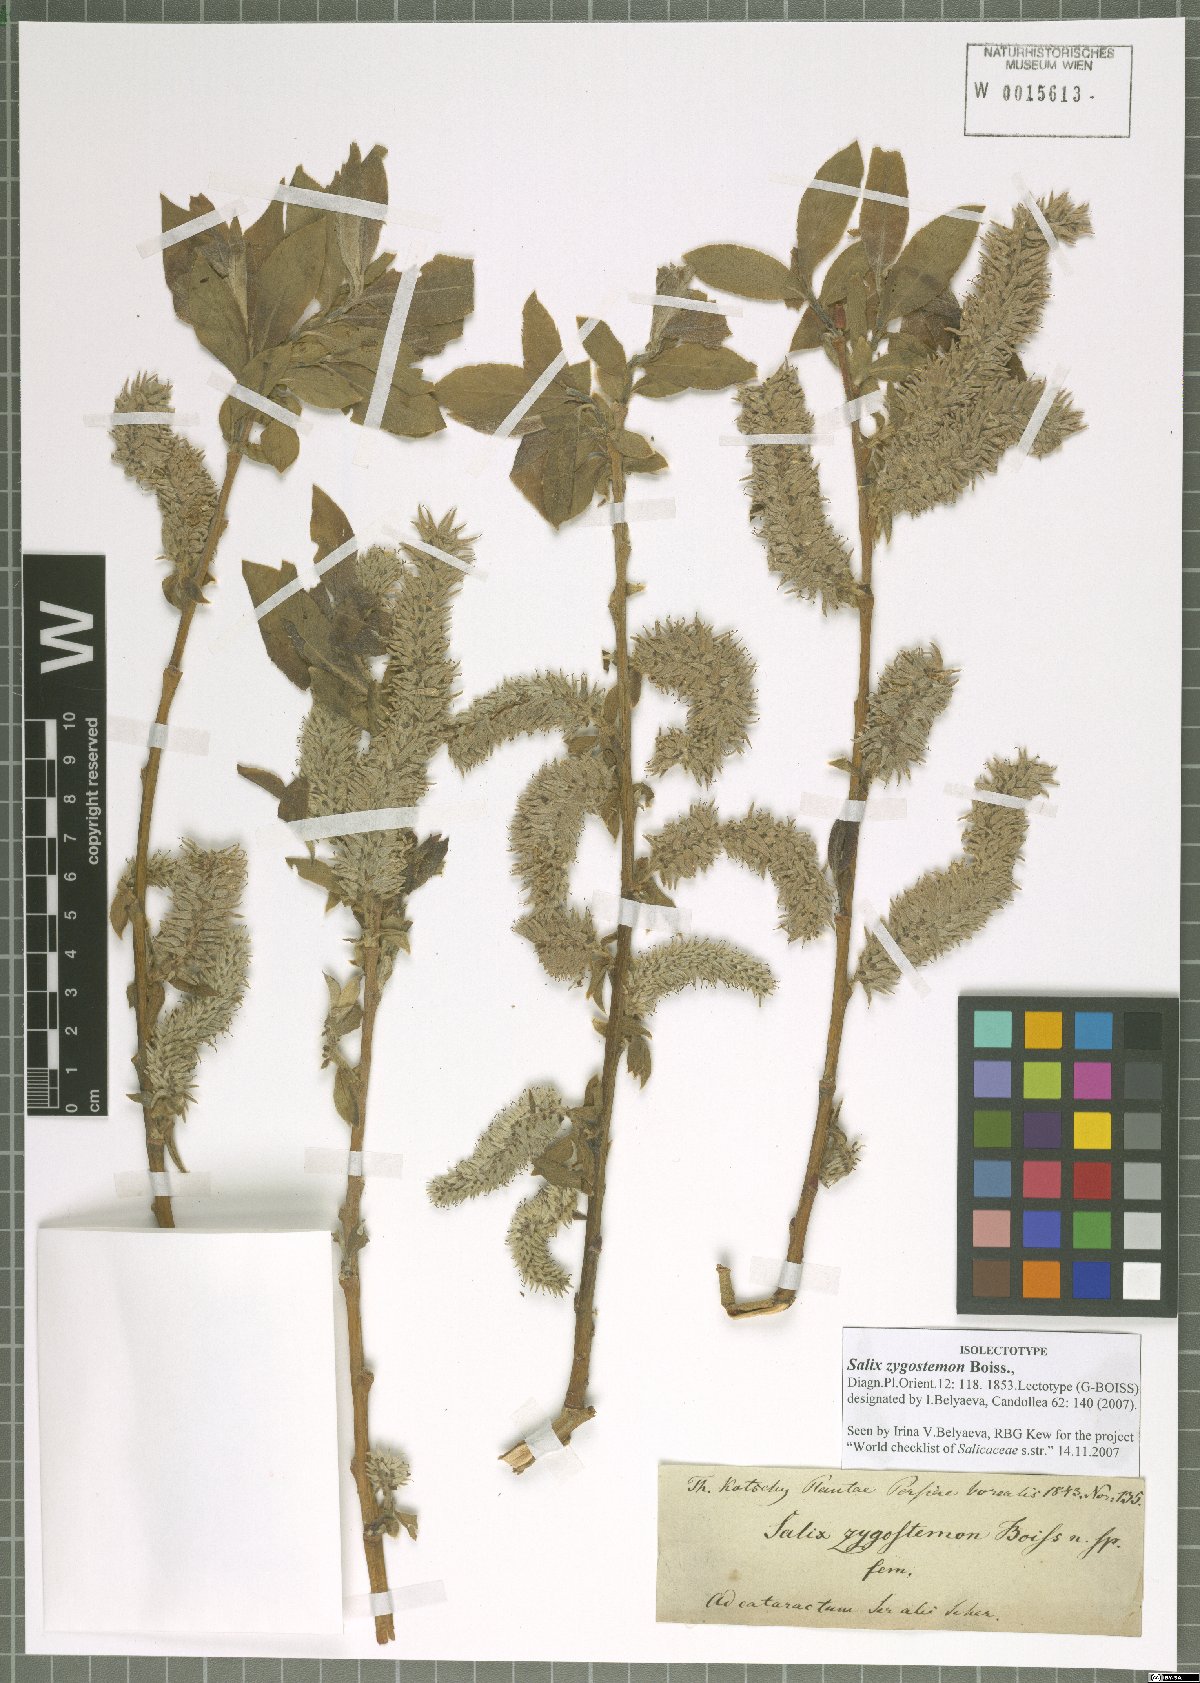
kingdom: Plantae
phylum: Tracheophyta
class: Magnoliopsida
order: Malpighiales
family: Salicaceae
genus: Salix
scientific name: Salix sericocarpa
